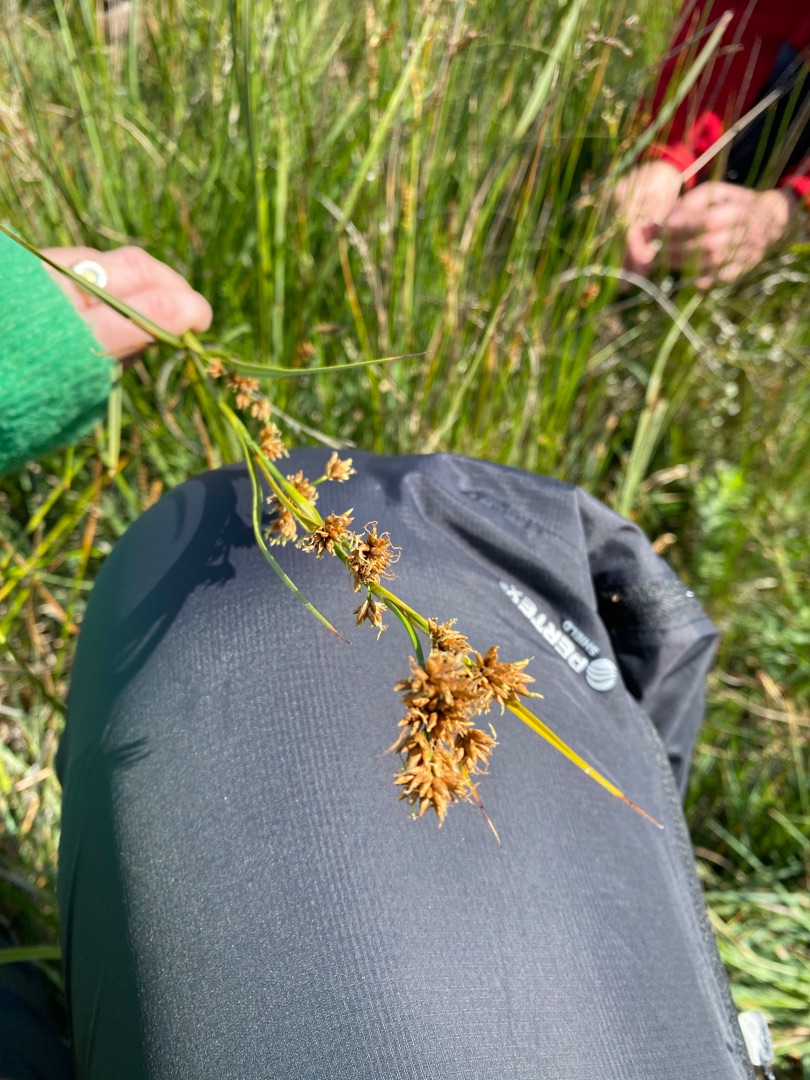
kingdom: Plantae
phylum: Tracheophyta
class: Liliopsida
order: Poales
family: Cyperaceae
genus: Cladium
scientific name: Cladium mariscus
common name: Hvas avneknippe
